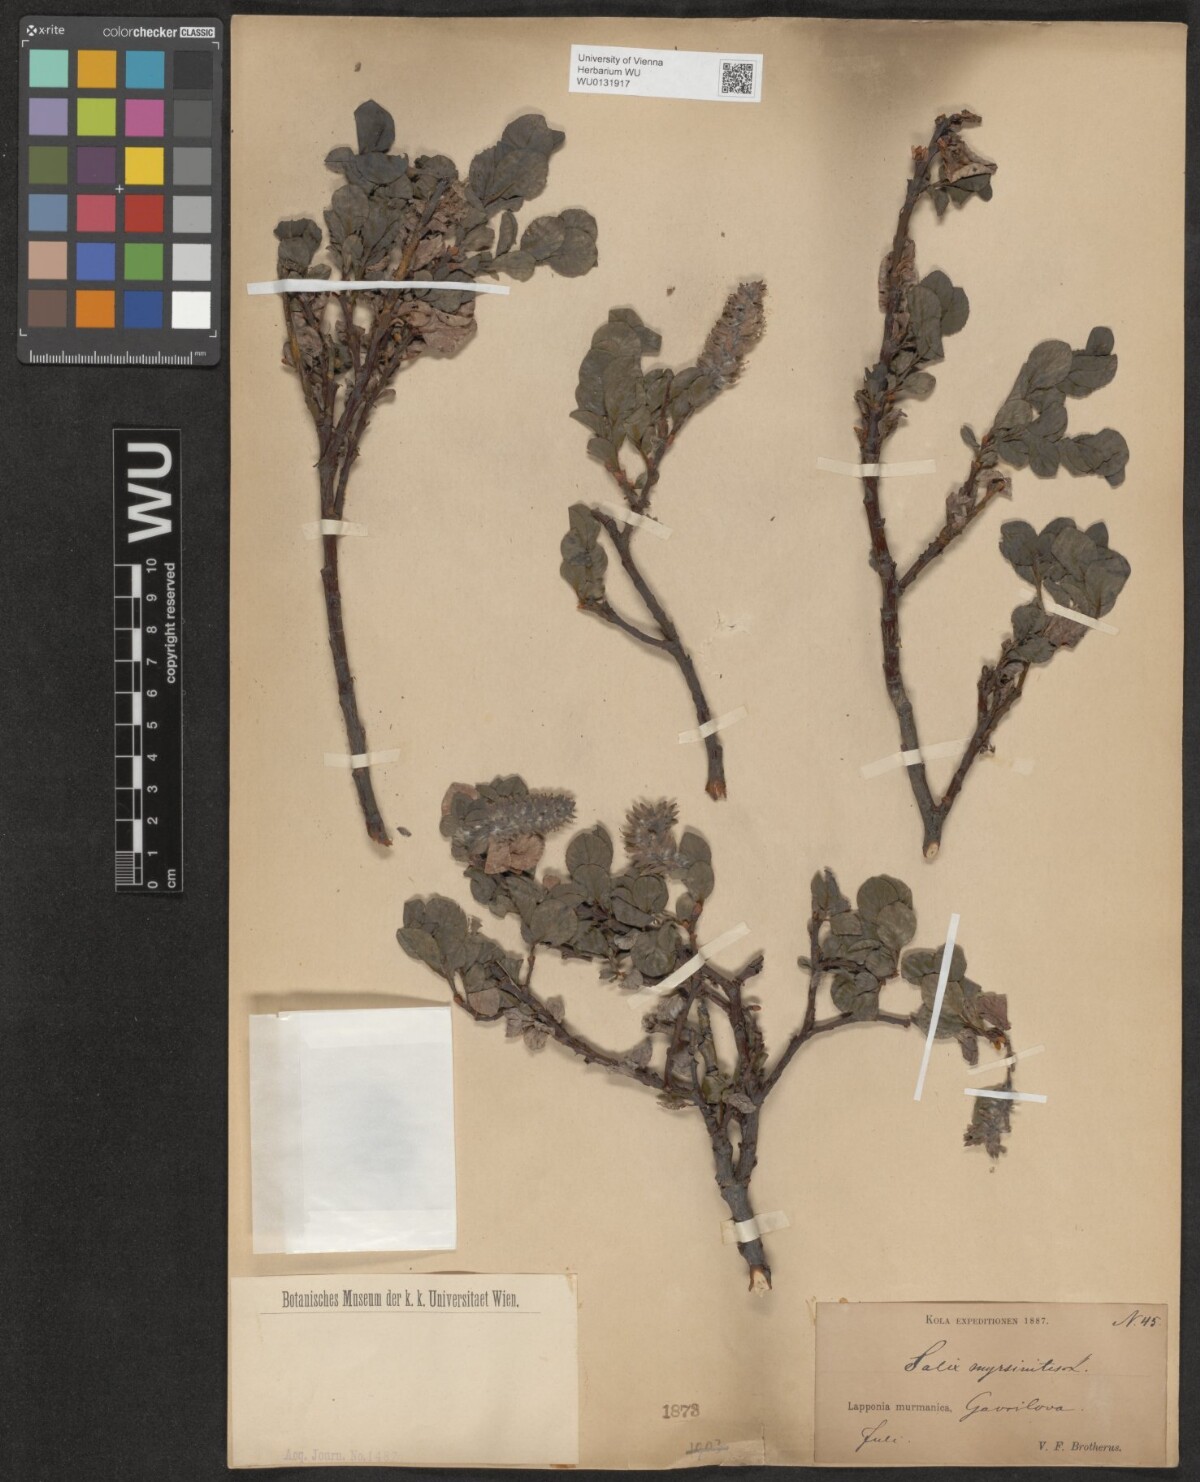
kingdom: Plantae
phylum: Tracheophyta
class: Magnoliopsida
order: Malpighiales
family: Salicaceae
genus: Salix
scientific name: Salix myrsinites
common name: Myrtle willow
